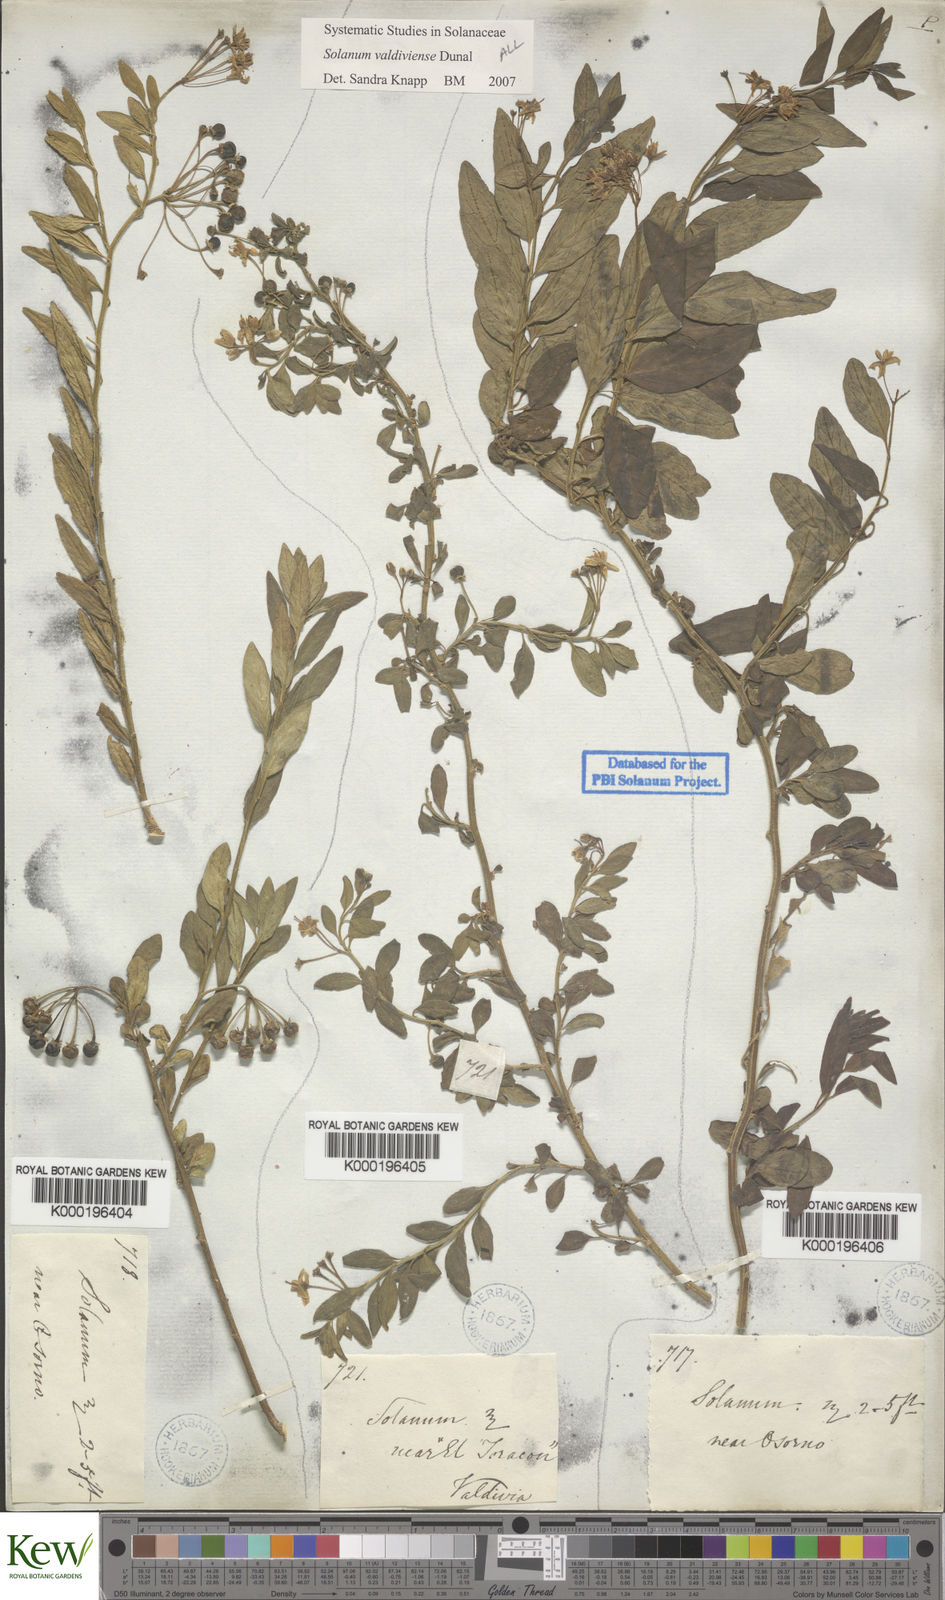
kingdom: Plantae
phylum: Tracheophyta
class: Magnoliopsida
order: Solanales
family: Solanaceae
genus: Solanum
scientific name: Solanum valdiviense
